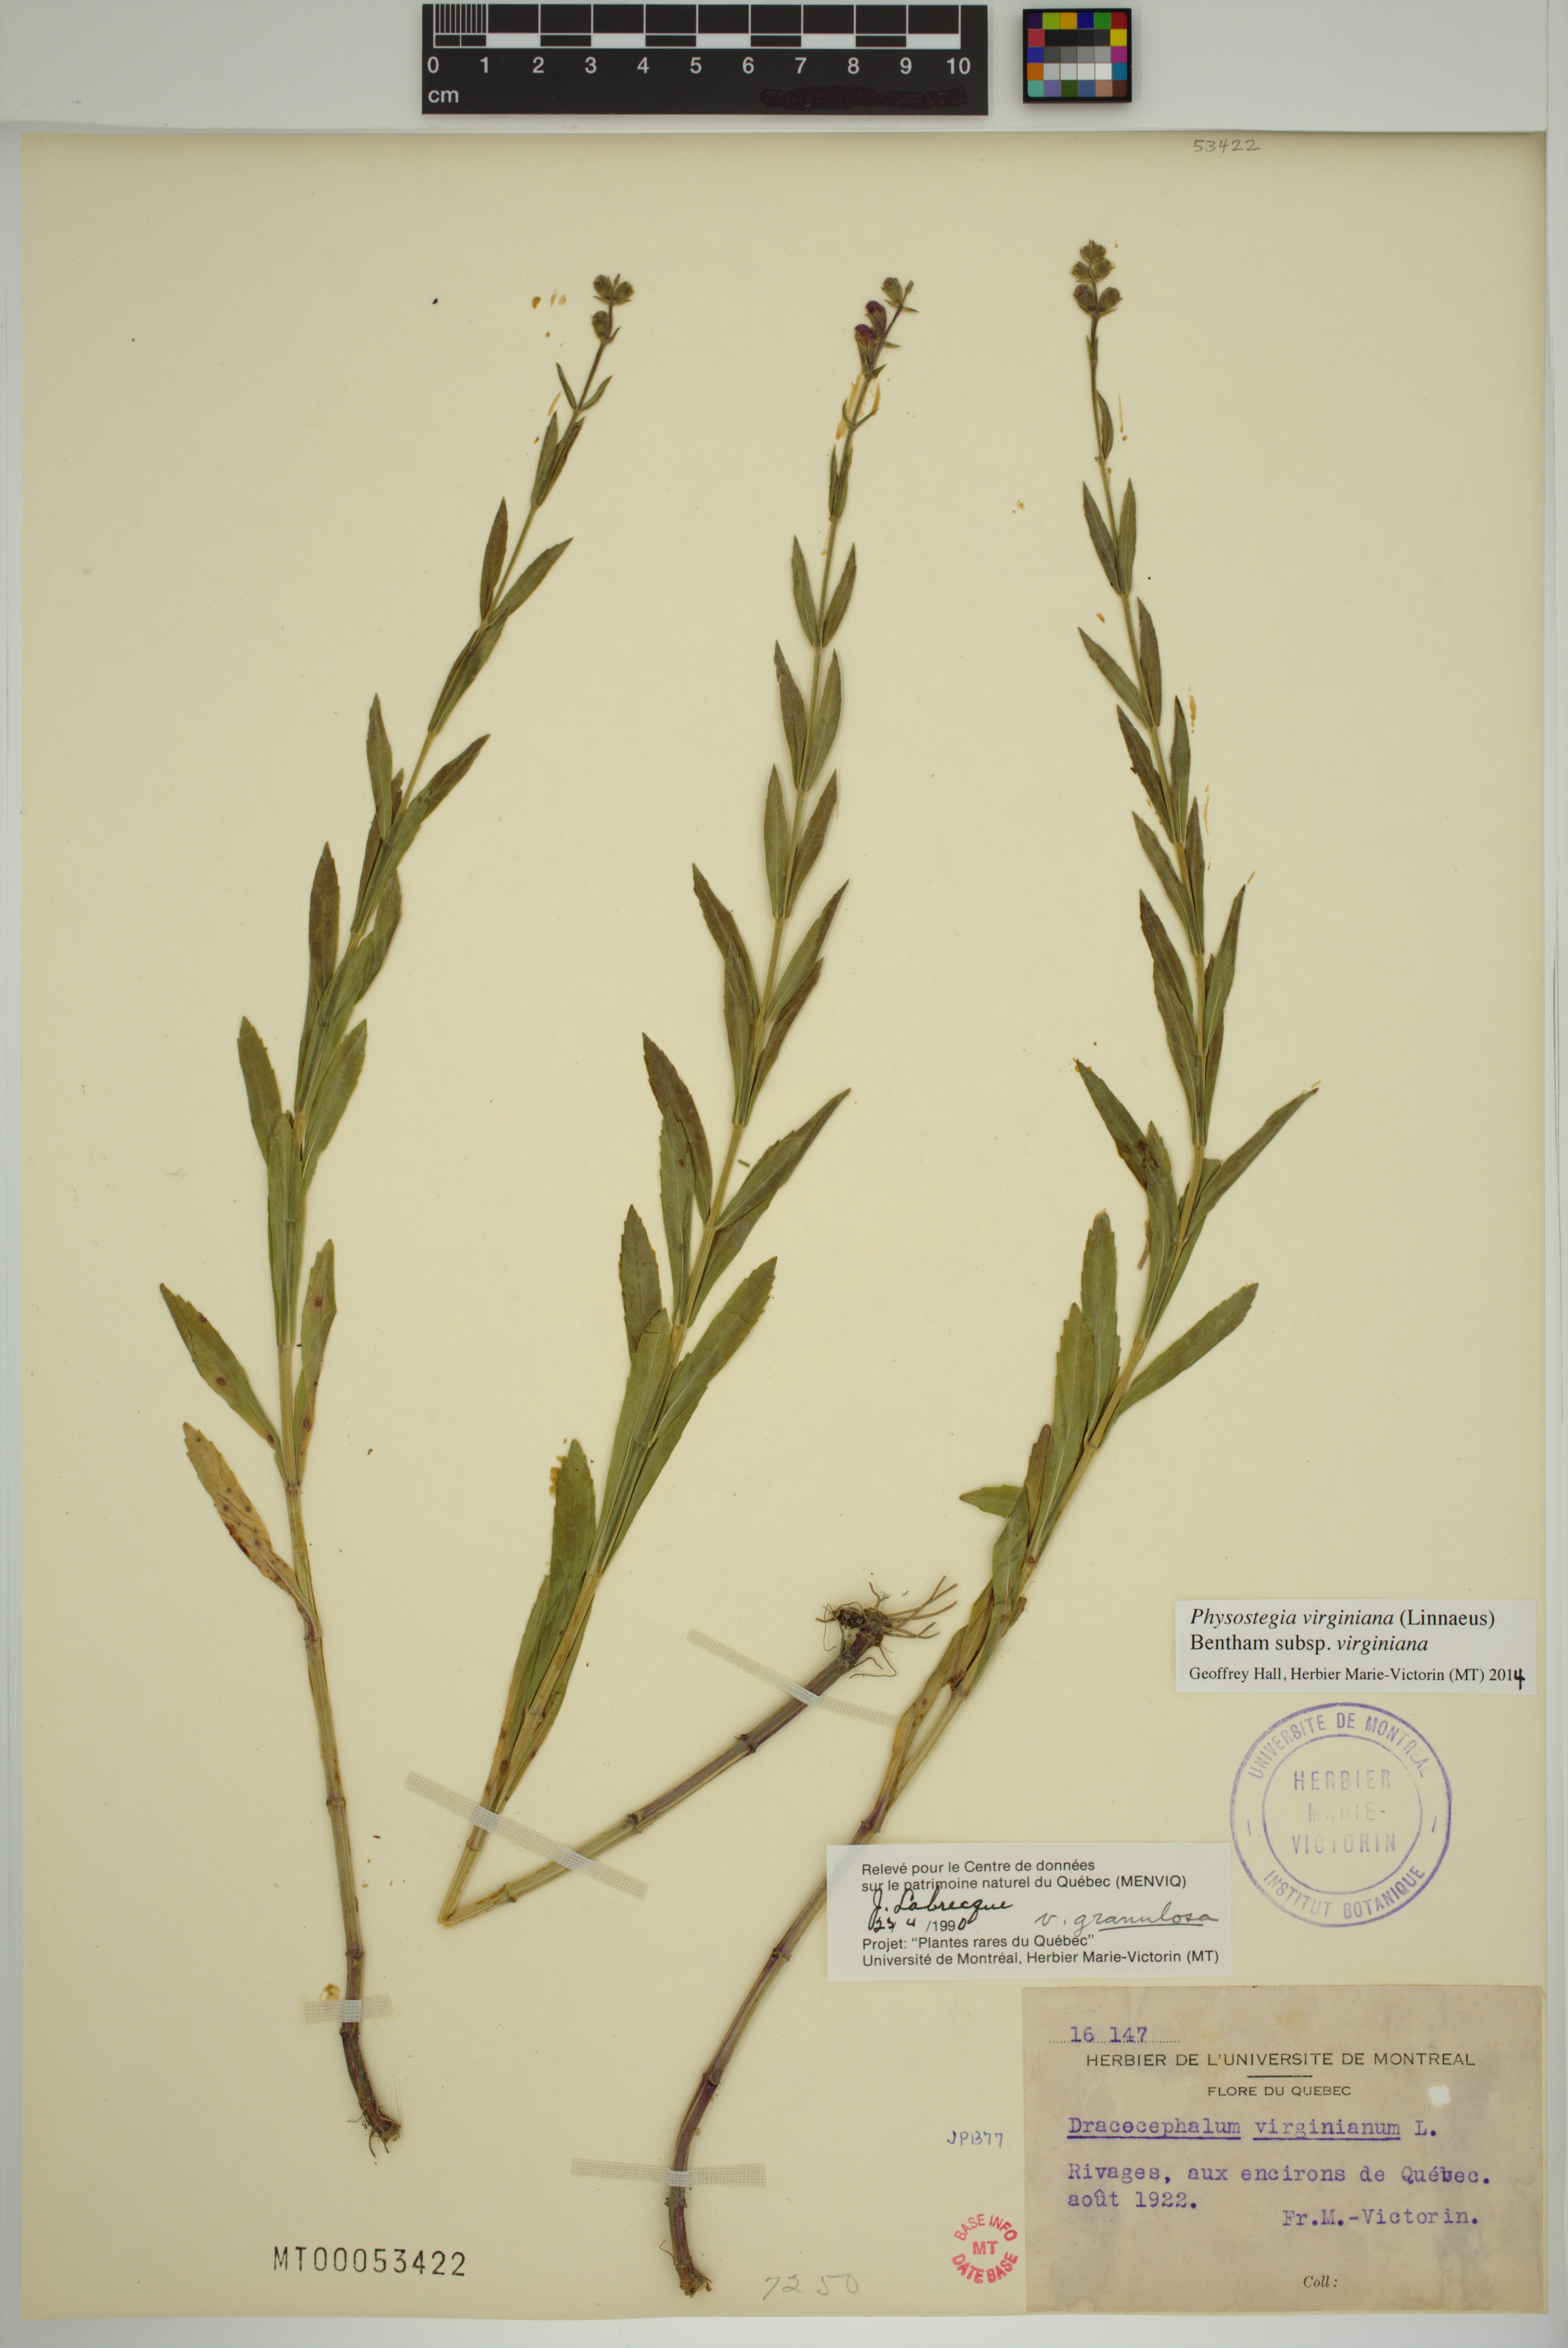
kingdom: Plantae
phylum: Tracheophyta
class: Magnoliopsida
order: Lamiales
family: Lamiaceae
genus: Physostegia
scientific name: Physostegia virginiana
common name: Obedient-plant
